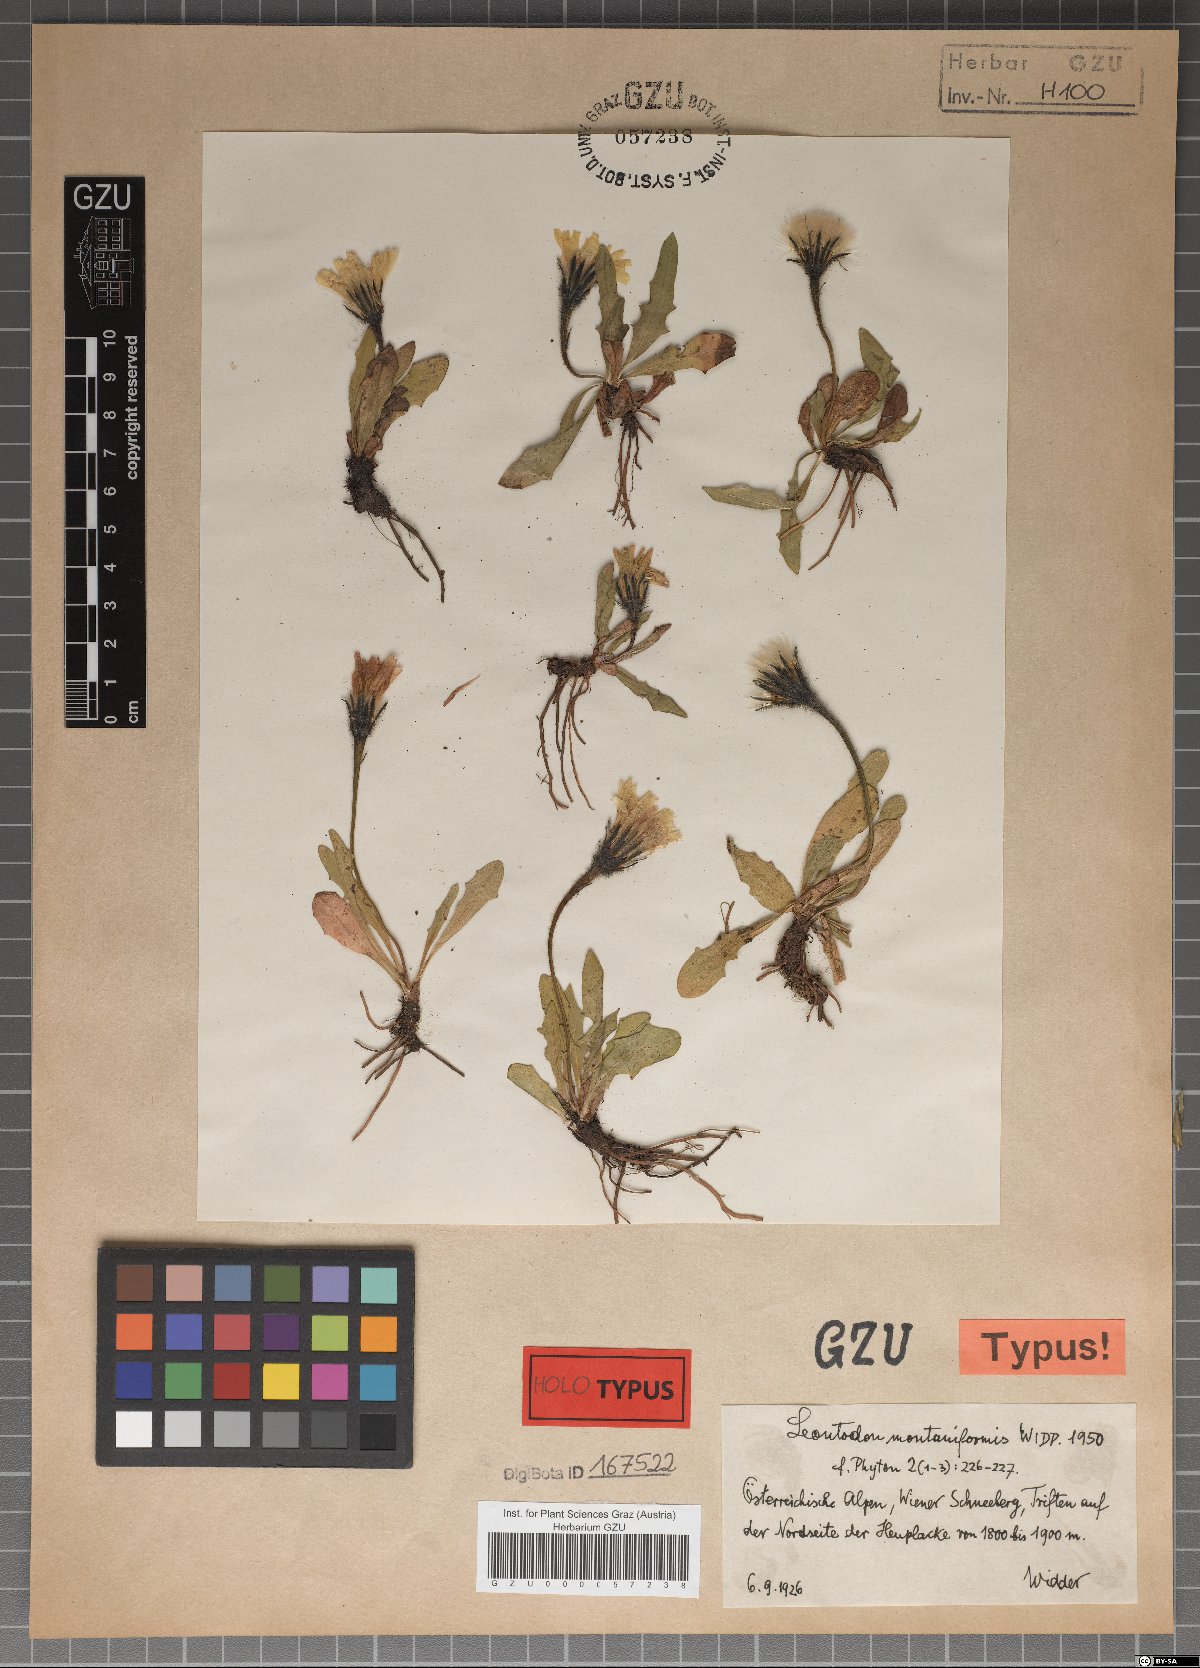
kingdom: Plantae
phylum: Tracheophyta
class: Magnoliopsida
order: Asterales
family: Asteraceae
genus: Scorzoneroides
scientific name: Scorzoneroides montana
